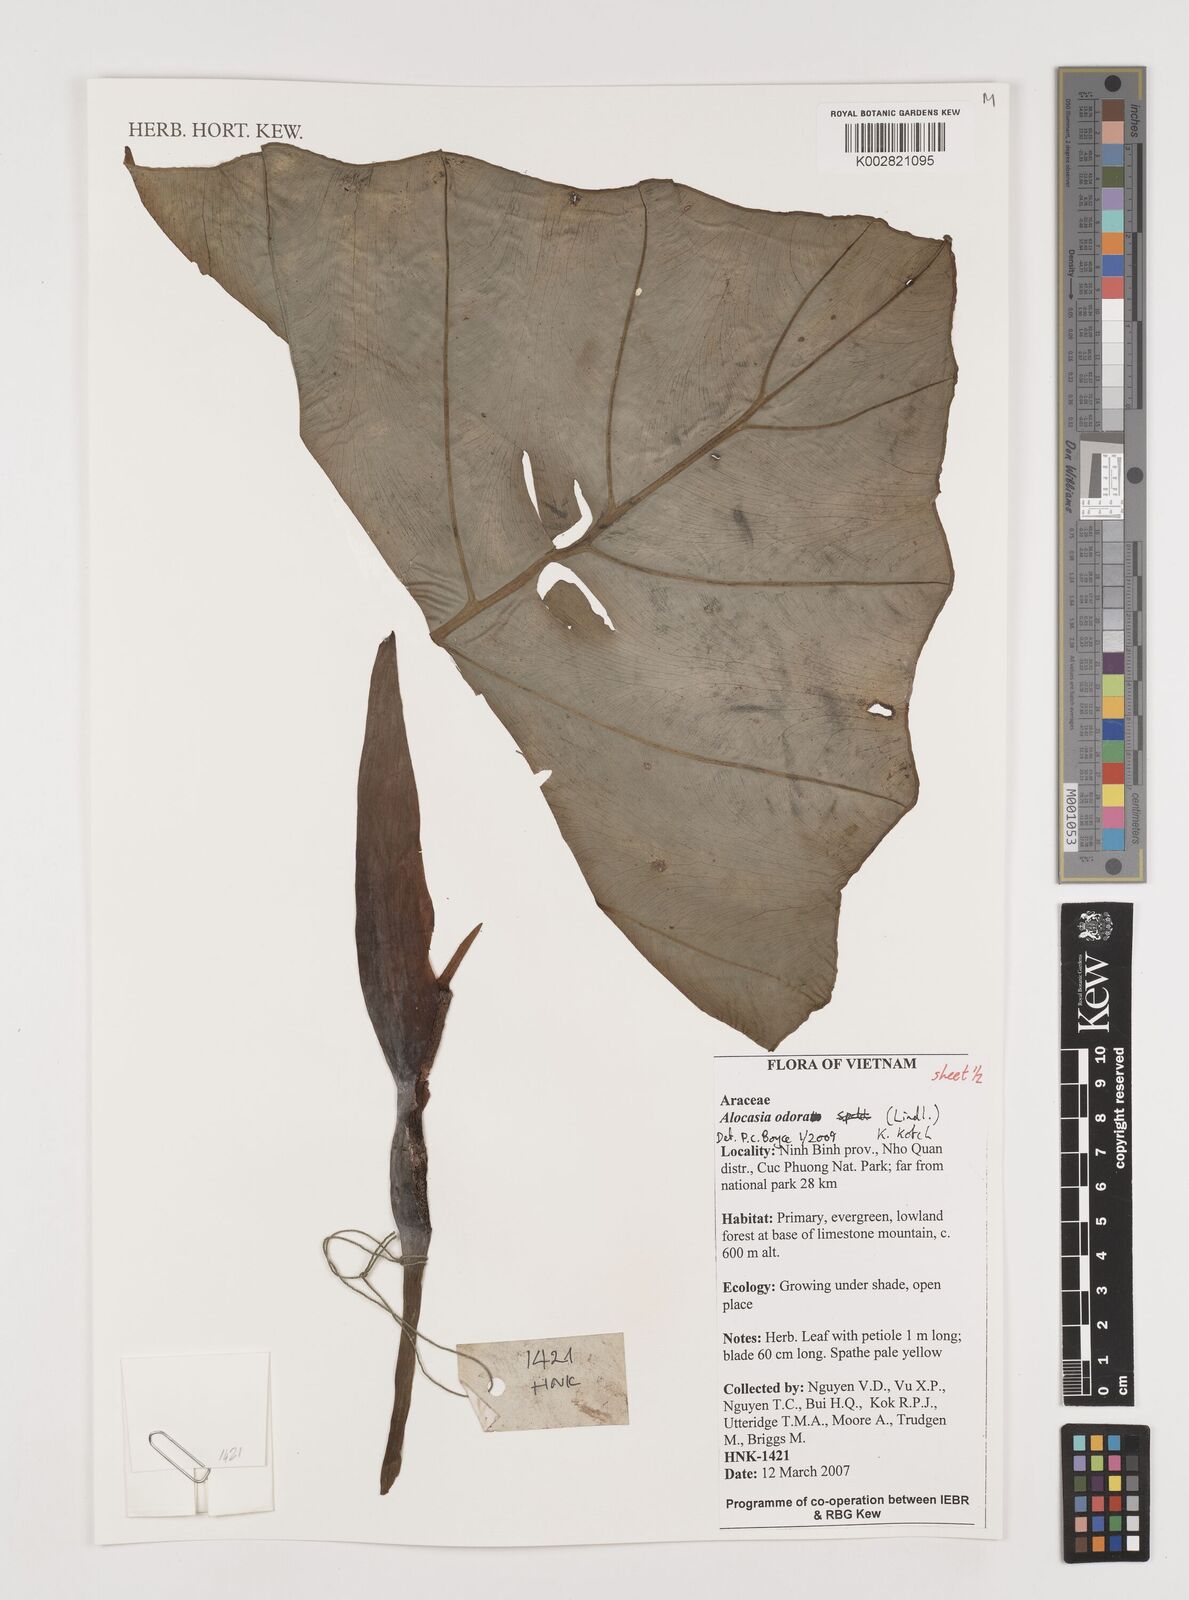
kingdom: Plantae
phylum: Tracheophyta
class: Liliopsida
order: Alismatales
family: Araceae
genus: Alocasia
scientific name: Alocasia odora
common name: Asian taro
